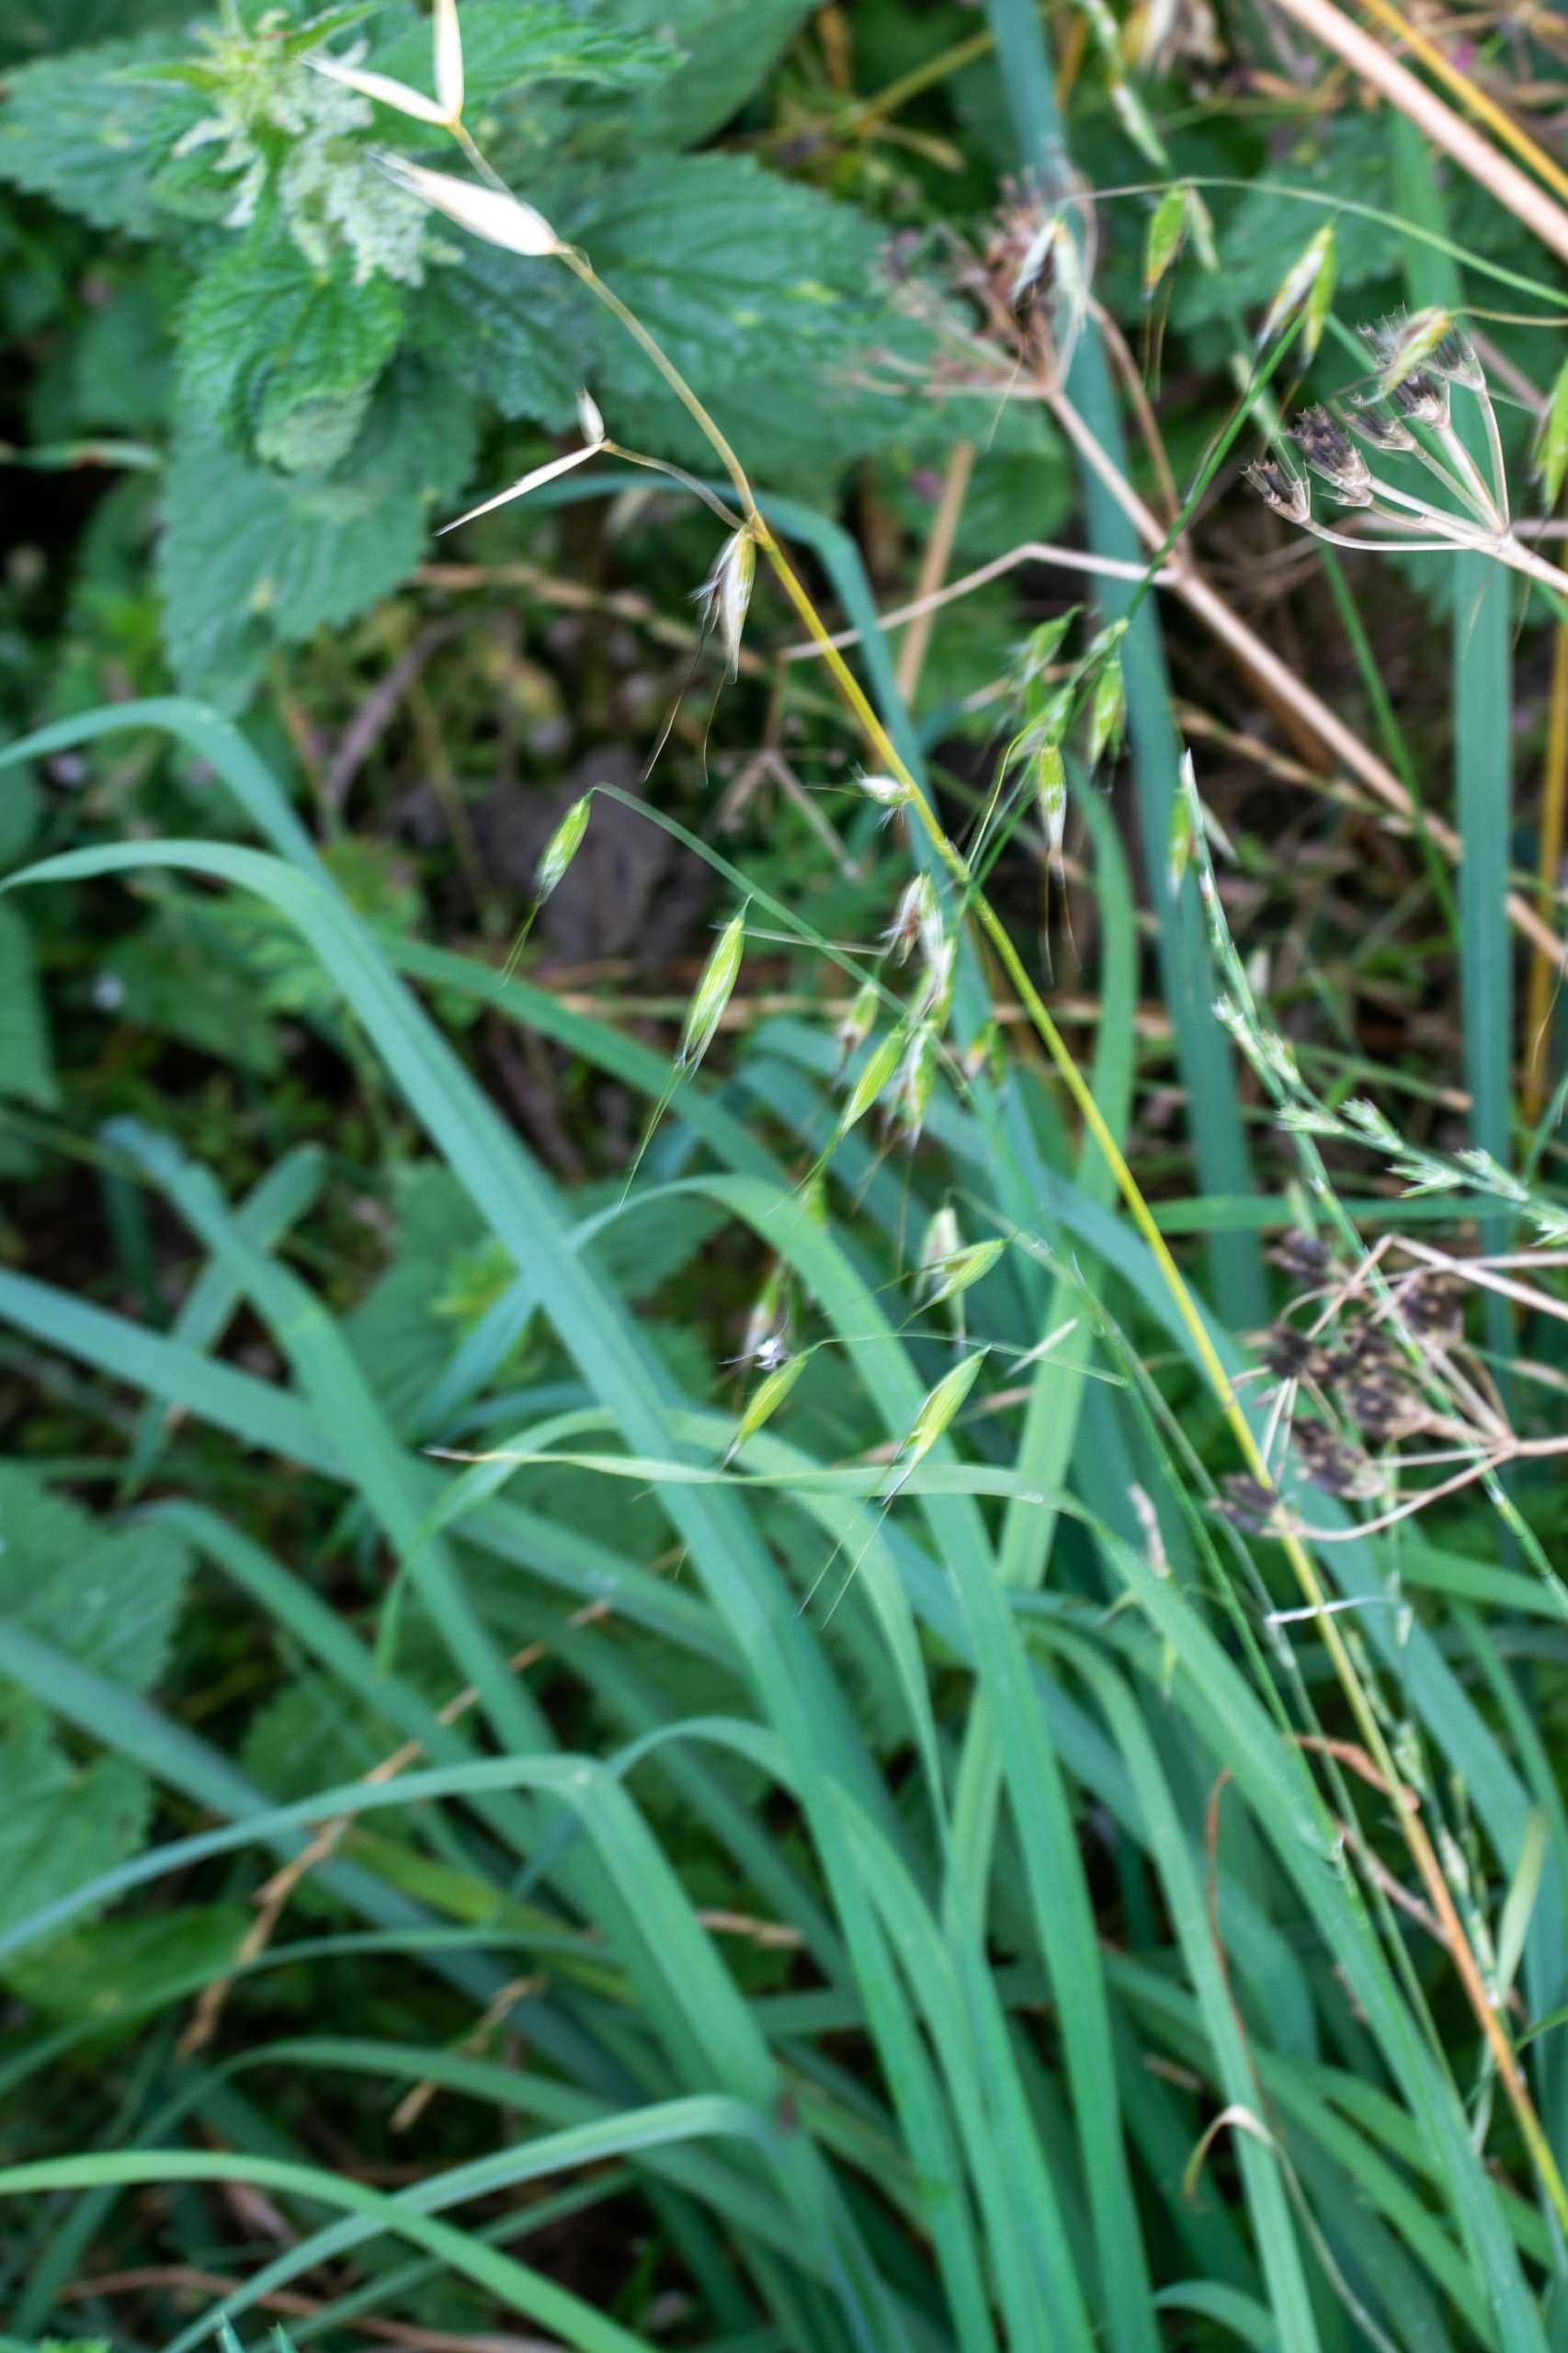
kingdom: Plantae
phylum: Tracheophyta
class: Liliopsida
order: Poales
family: Poaceae
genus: Avena
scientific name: Avena fatua
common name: Flyve-havre
